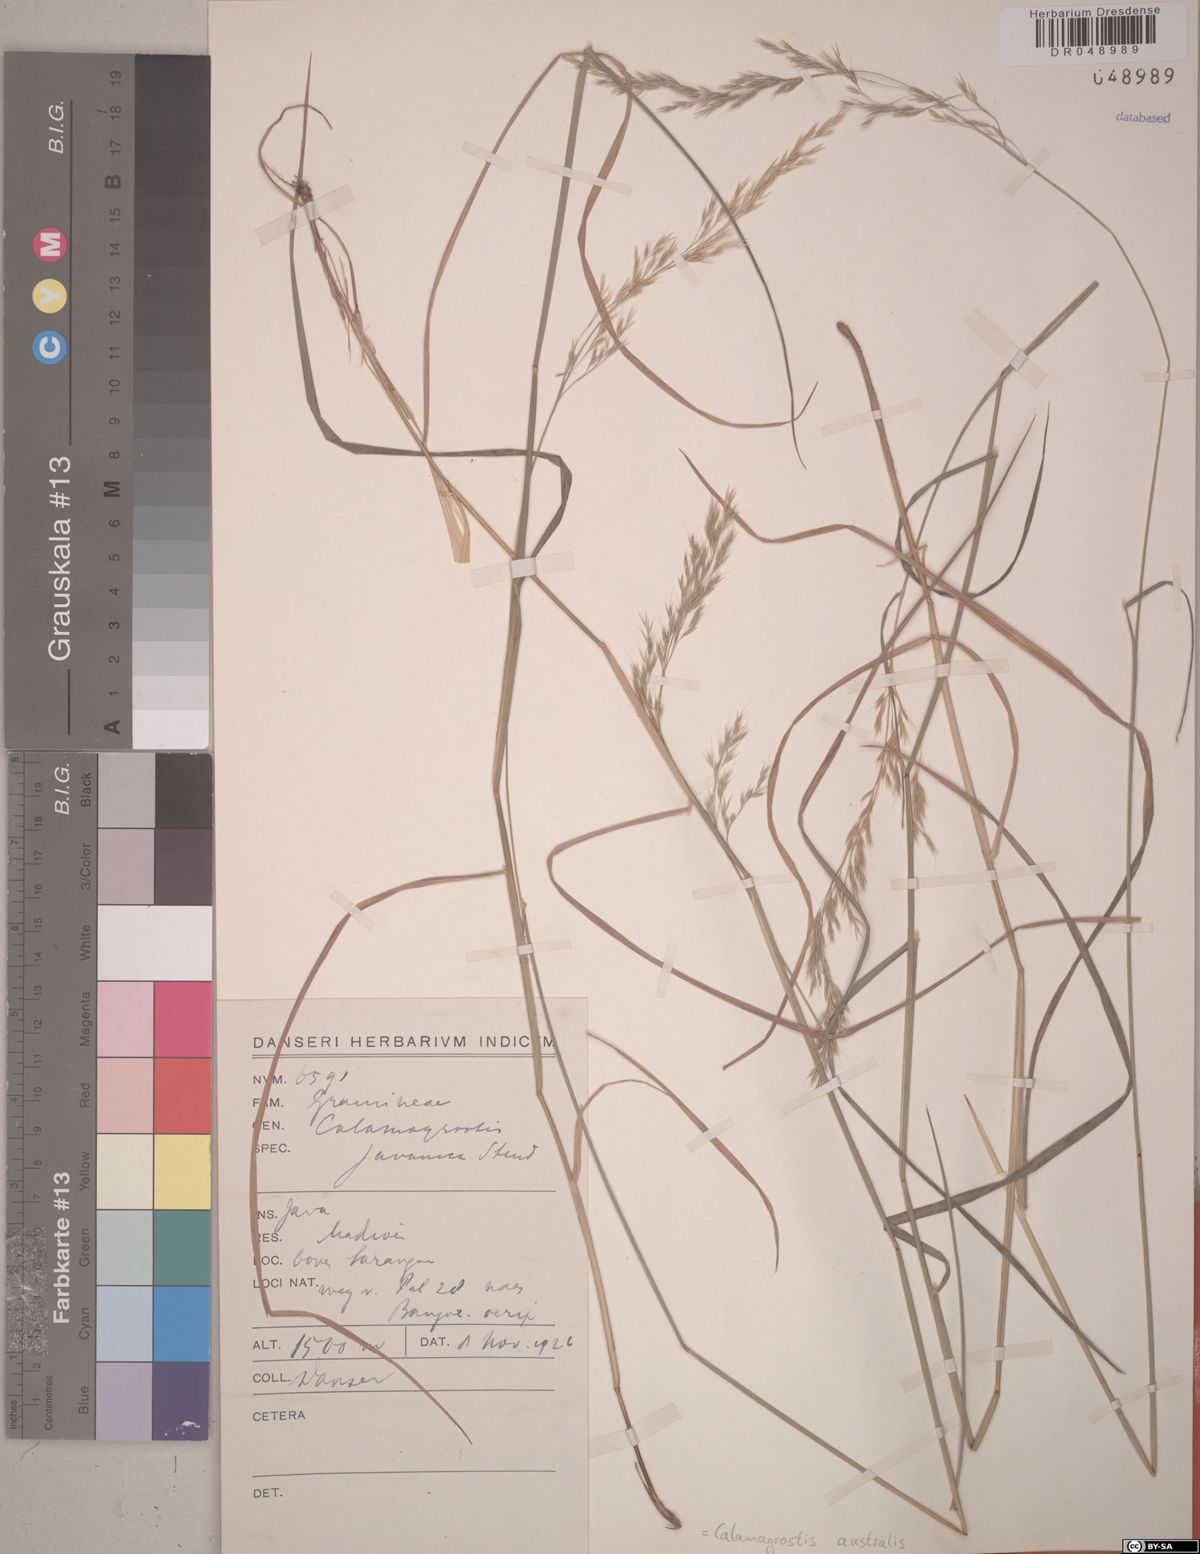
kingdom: Plantae
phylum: Tracheophyta
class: Liliopsida
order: Poales
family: Poaceae
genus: Calamagrostis
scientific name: Calamagrostis australis
